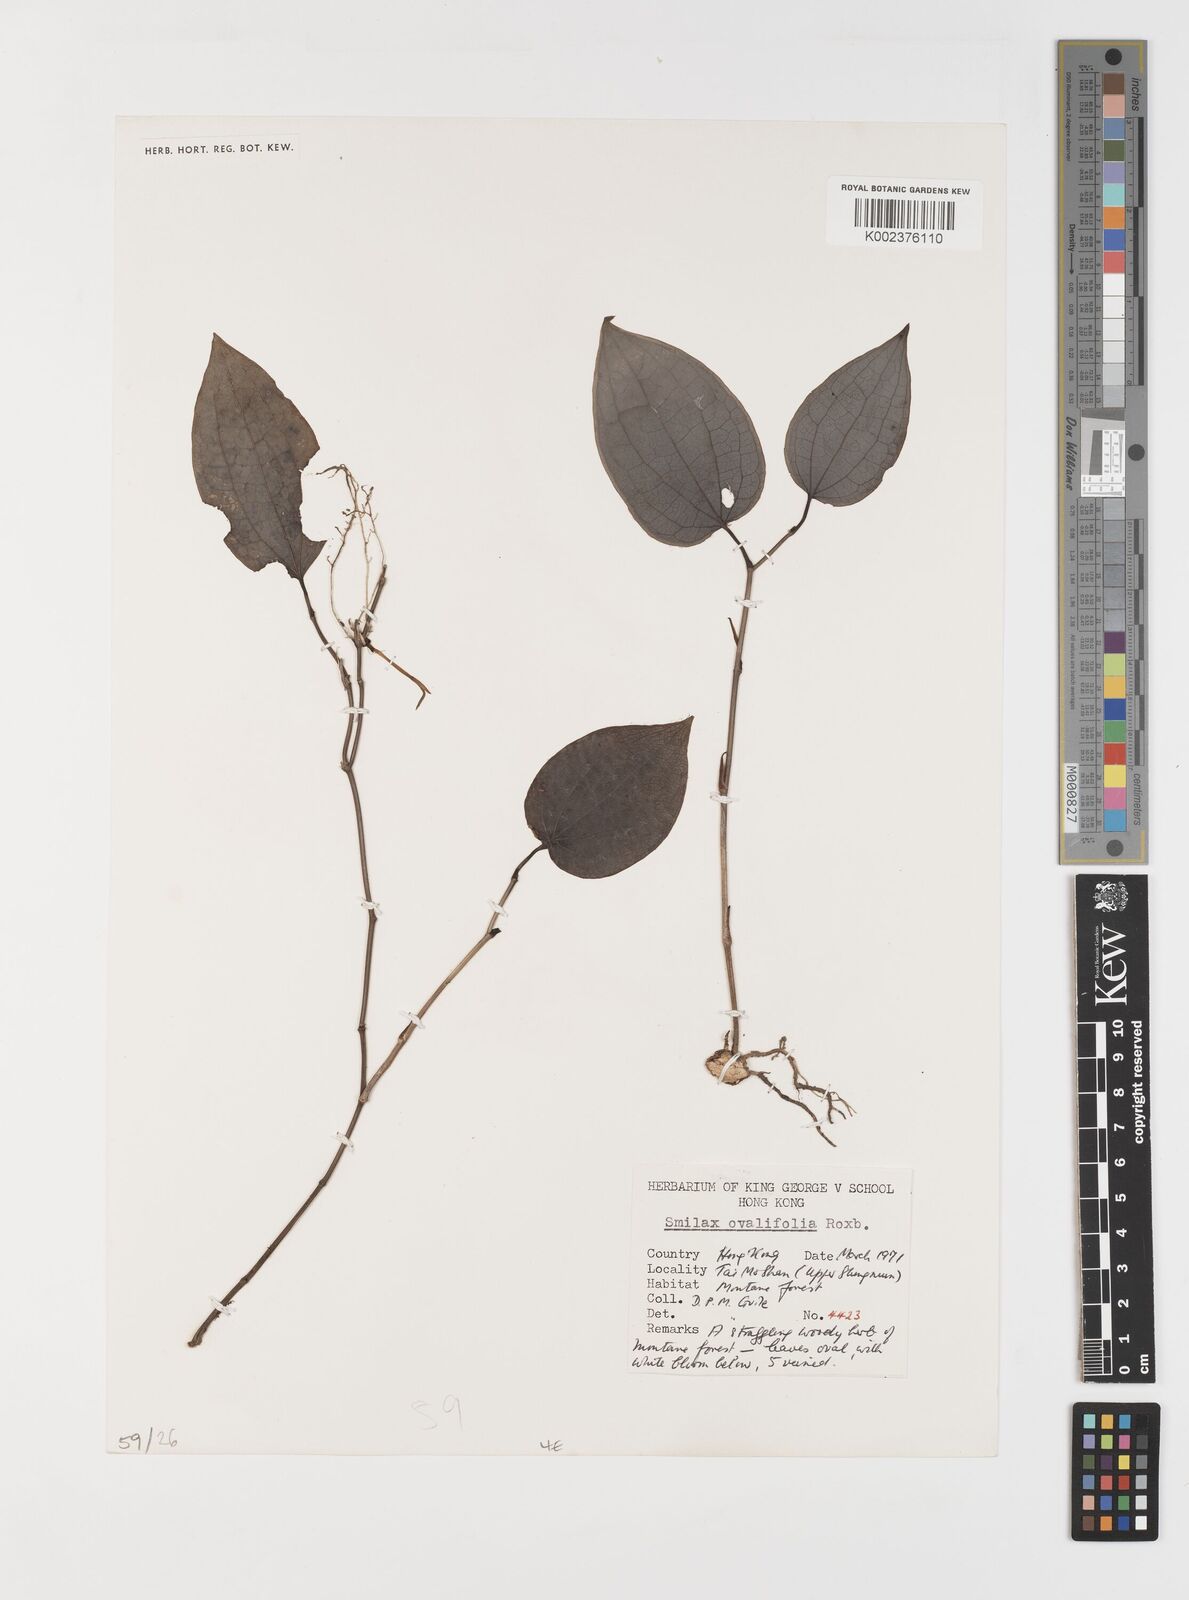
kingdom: Plantae
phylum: Tracheophyta
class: Liliopsida
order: Liliales
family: Smilacaceae
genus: Smilax
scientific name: Smilax ovalifolia
